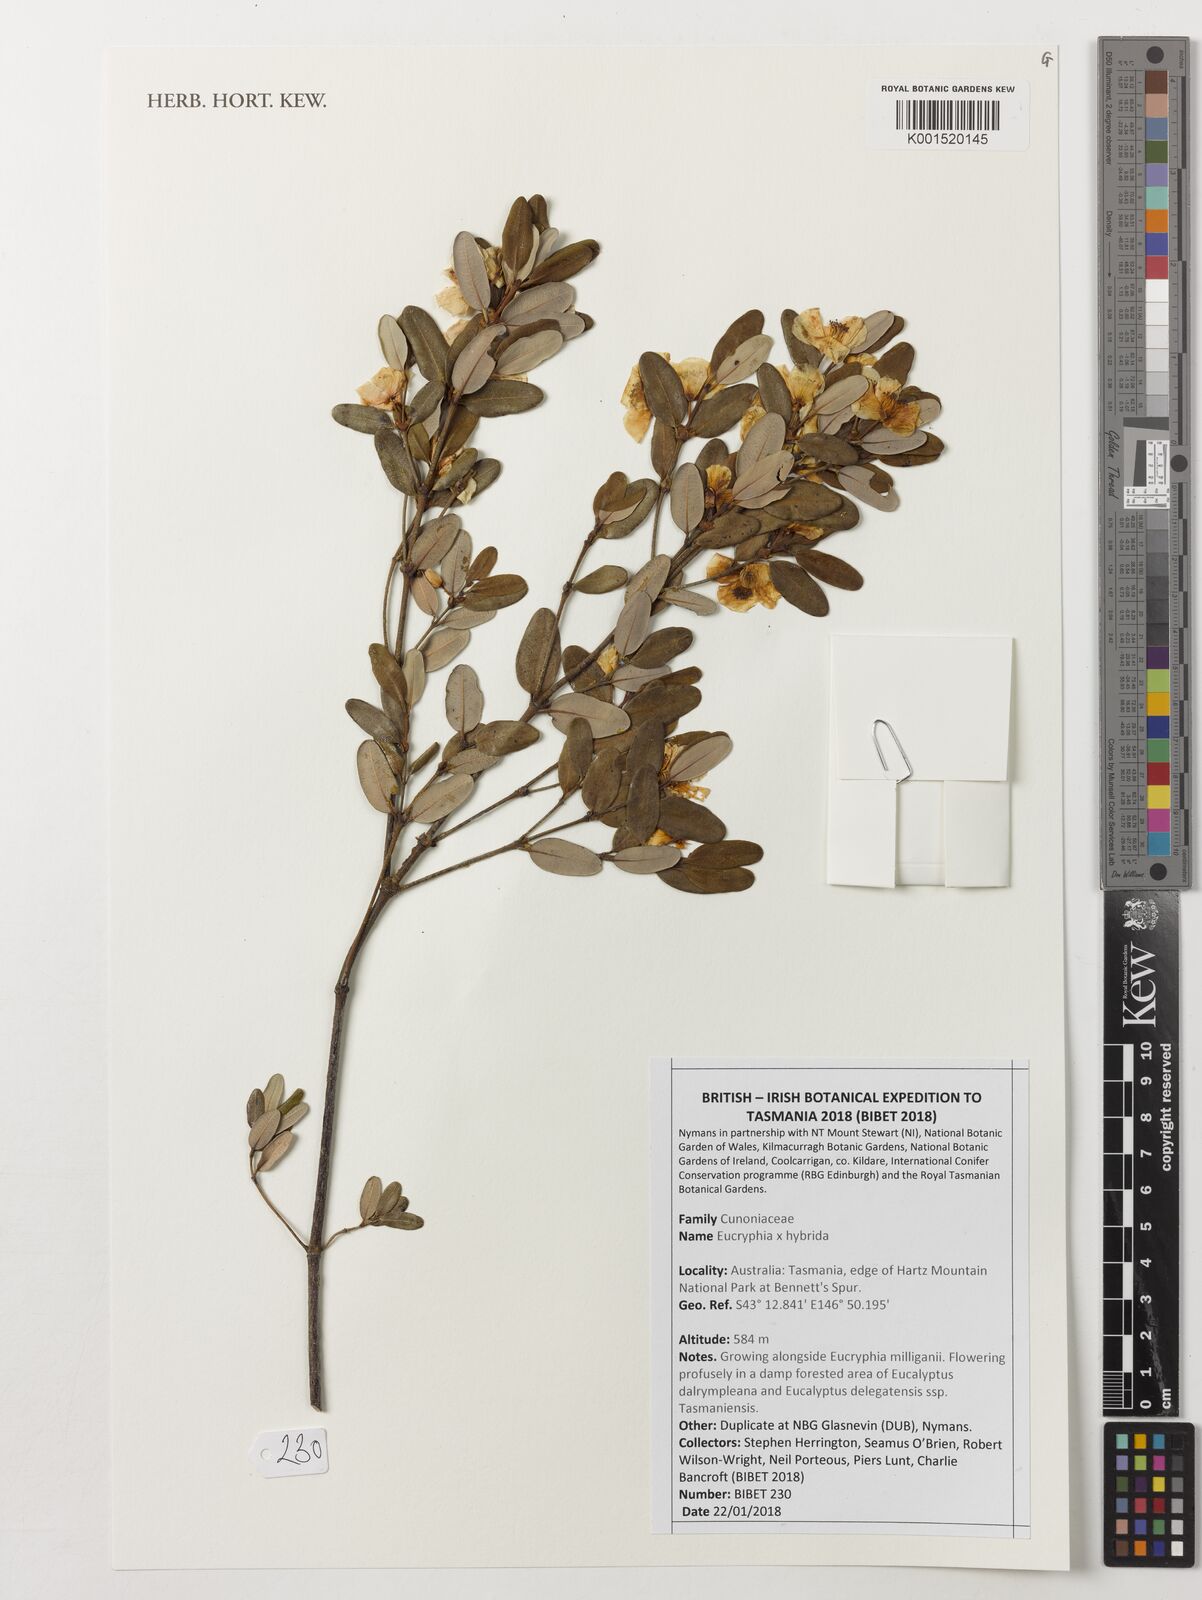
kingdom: Plantae
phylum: Tracheophyta
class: Magnoliopsida
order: Oxalidales
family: Cunoniaceae
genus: Eucryphia
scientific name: Eucryphia
